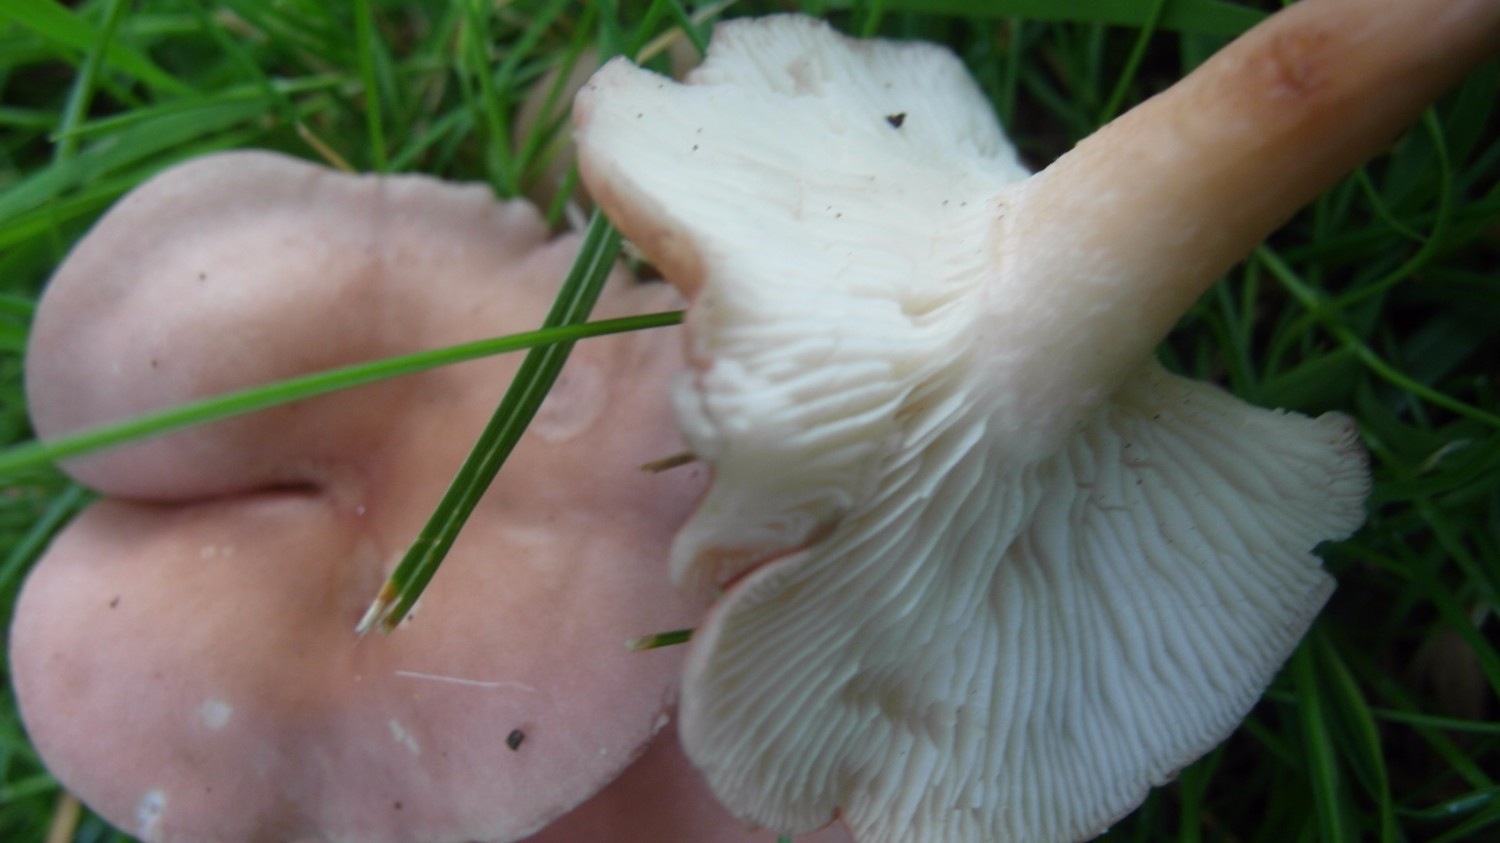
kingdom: Fungi
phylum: Basidiomycota
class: Agaricomycetes
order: Agaricales
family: Lyophyllaceae
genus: Calocybe
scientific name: Calocybe carnea
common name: rosa fagerhat
